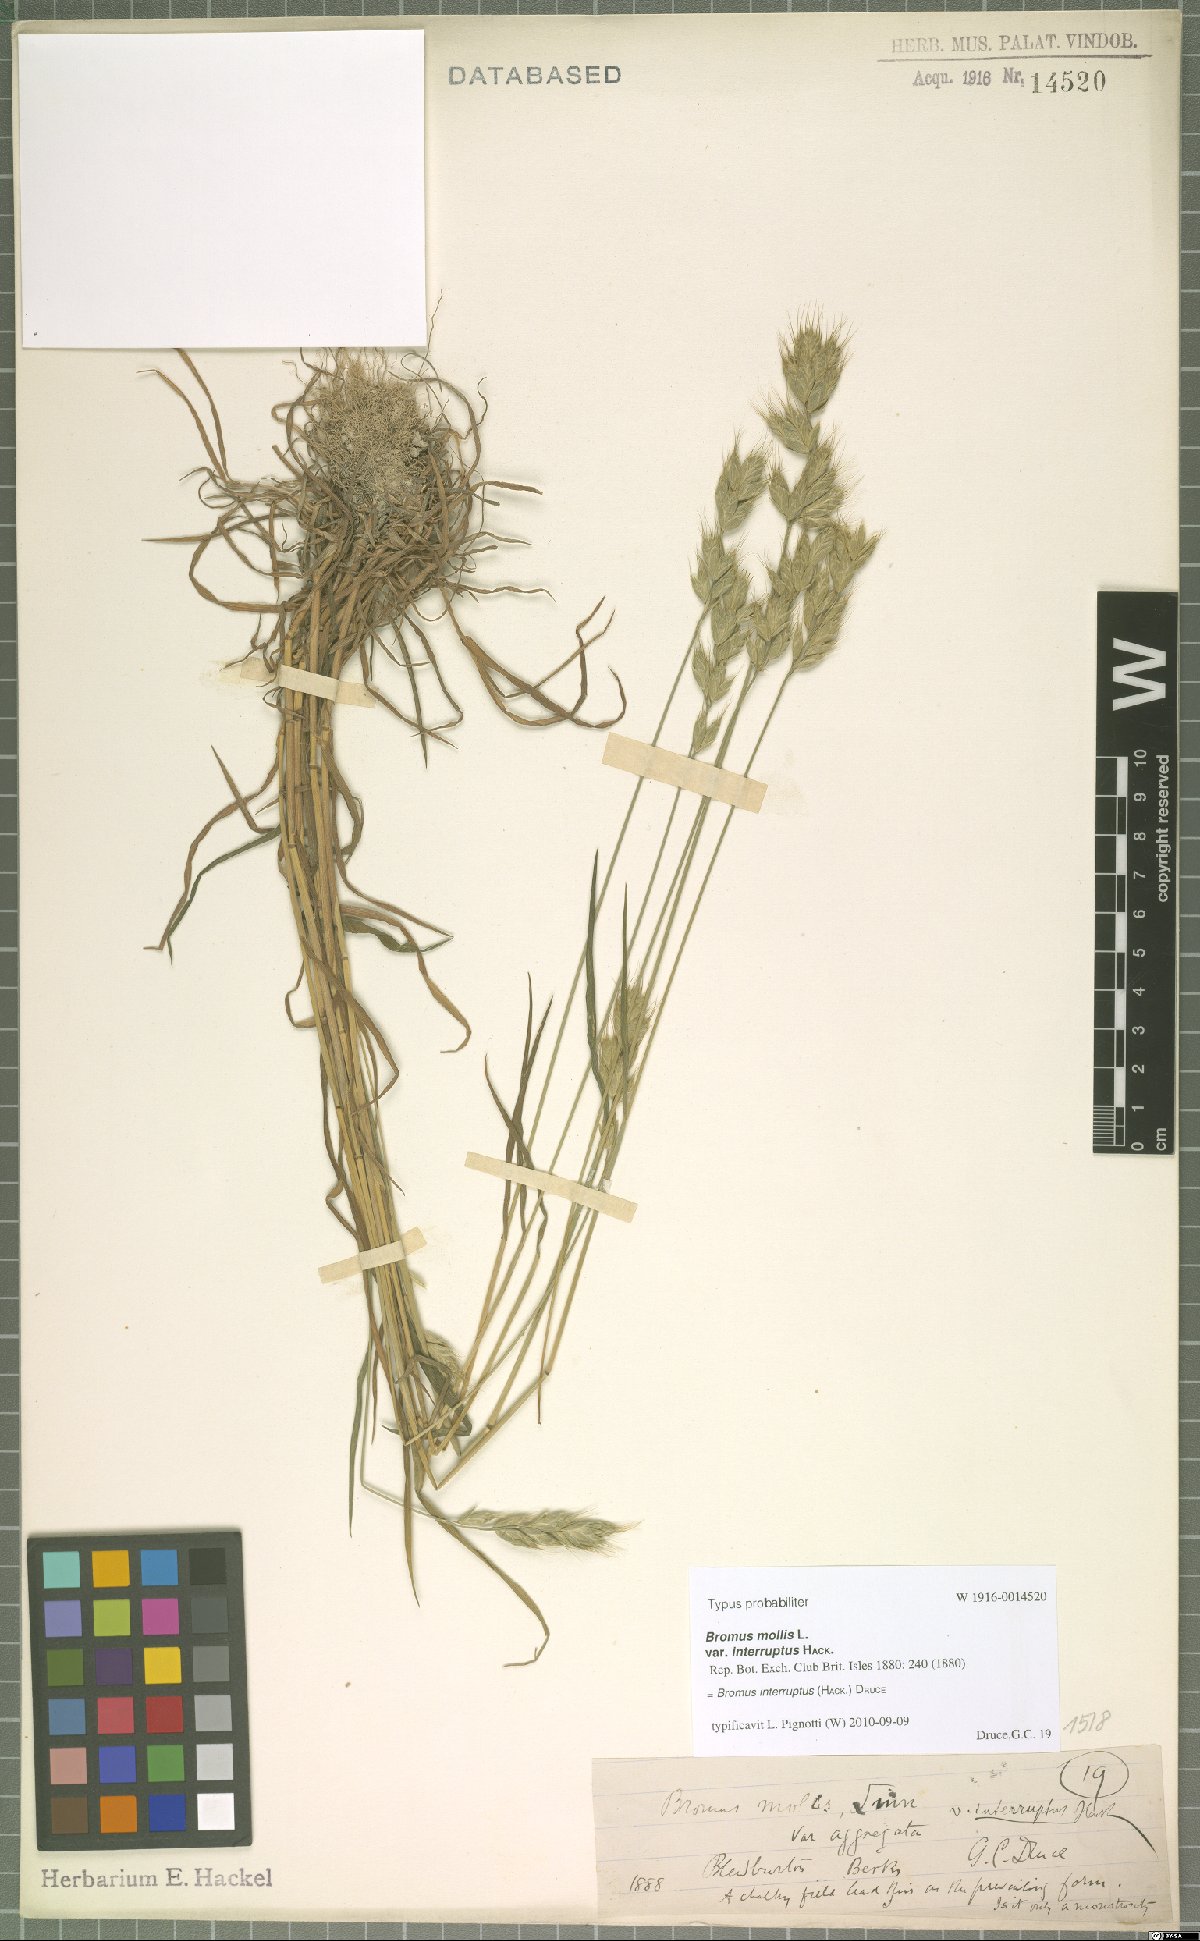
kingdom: Plantae
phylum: Tracheophyta
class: Liliopsida
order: Poales
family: Poaceae
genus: Bromus
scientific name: Bromus interruptus
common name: Interrupted brome
